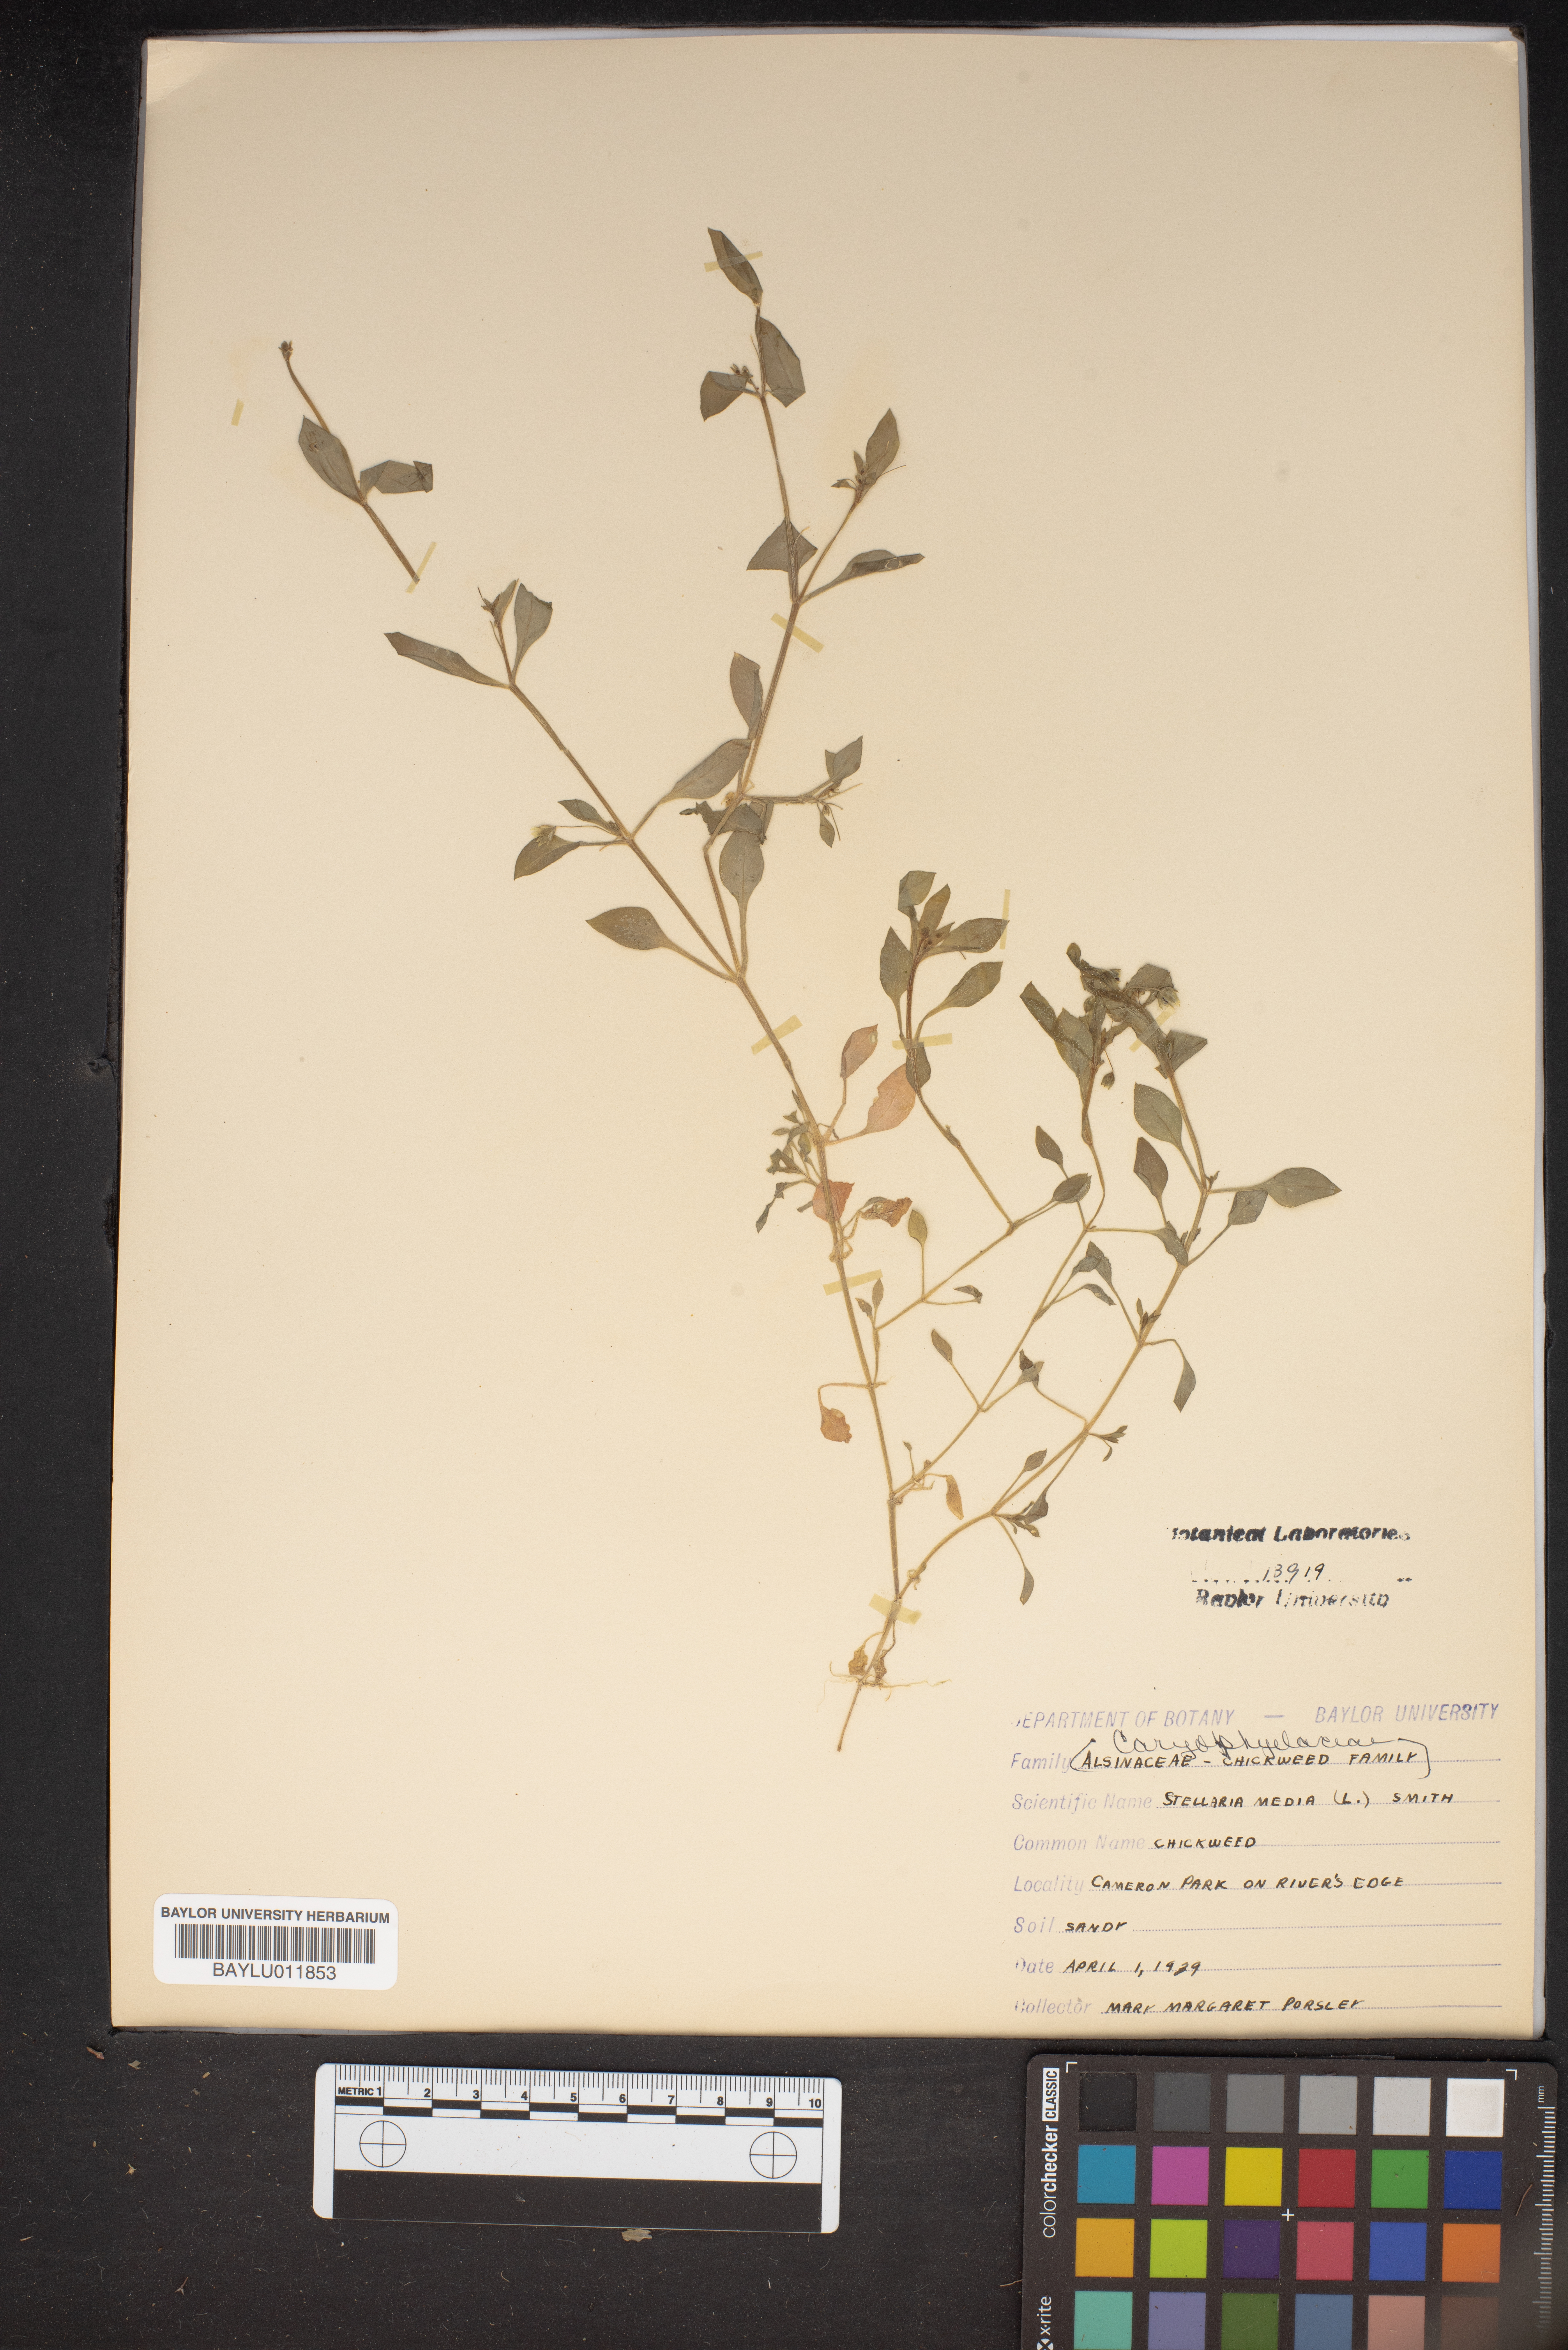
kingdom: Plantae
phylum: Tracheophyta
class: Magnoliopsida
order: Caryophyllales
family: Caryophyllaceae
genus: Stellaria
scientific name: Stellaria media
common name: Common chickweed
